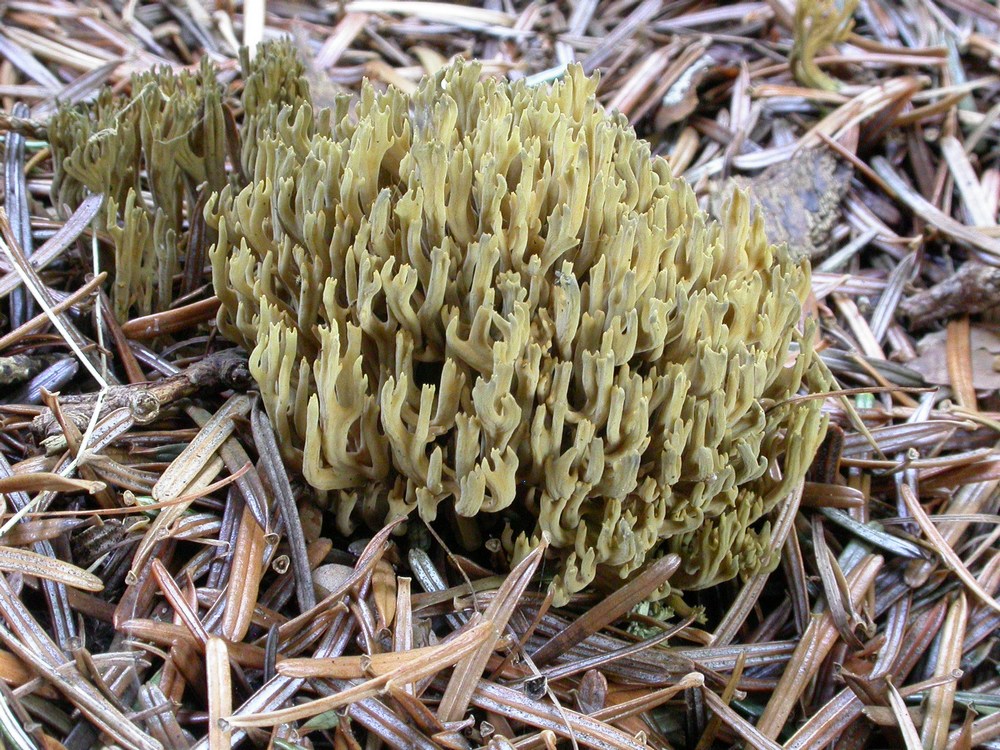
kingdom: Fungi
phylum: Basidiomycota
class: Agaricomycetes
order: Gomphales
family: Gomphaceae
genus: Phaeoclavulina
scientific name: Phaeoclavulina abietina
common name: gulgrøn koralsvamp
